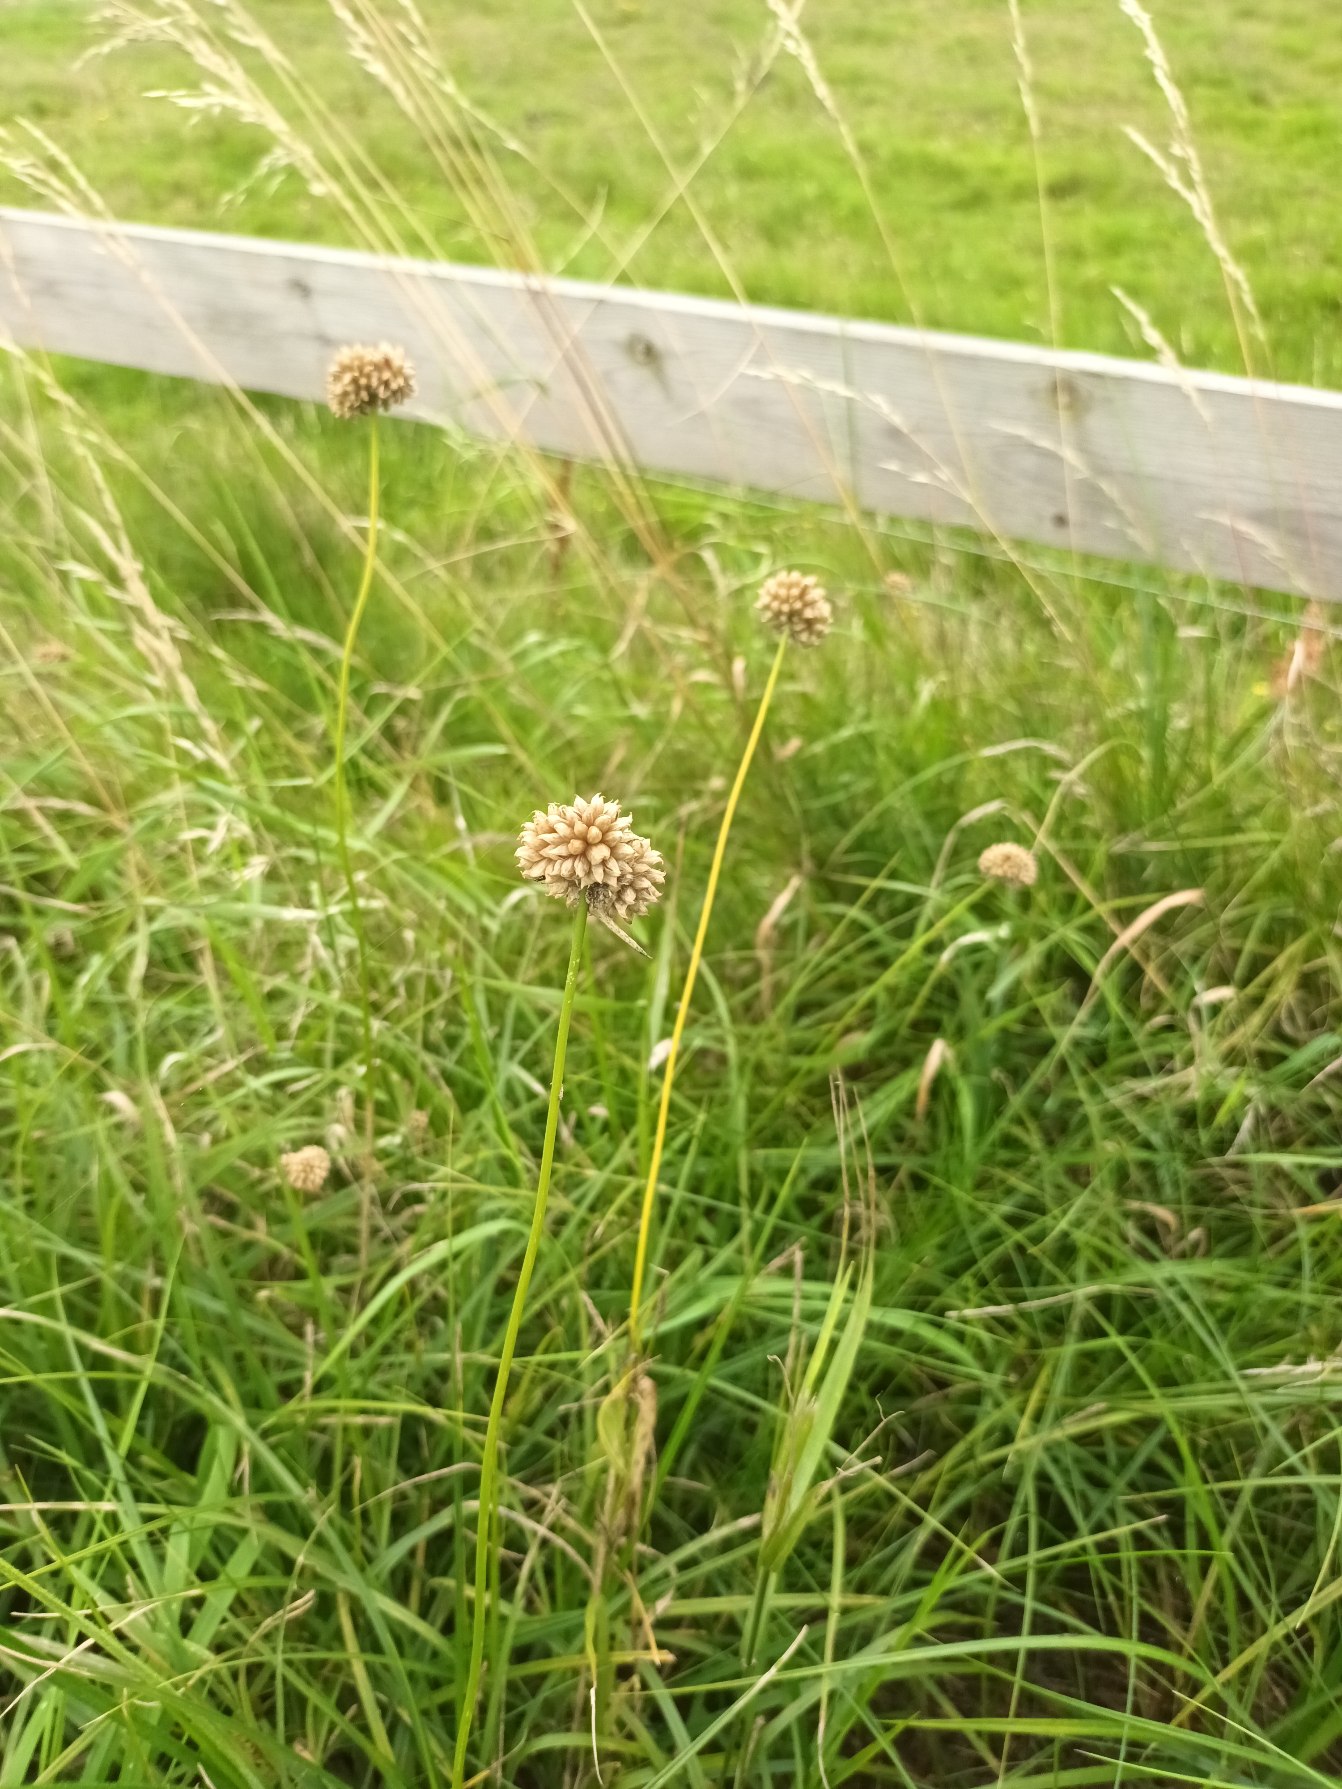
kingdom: Plantae
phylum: Tracheophyta
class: Liliopsida
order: Asparagales
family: Amaryllidaceae
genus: Allium
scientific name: Allium vineale
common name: Sand-løg
